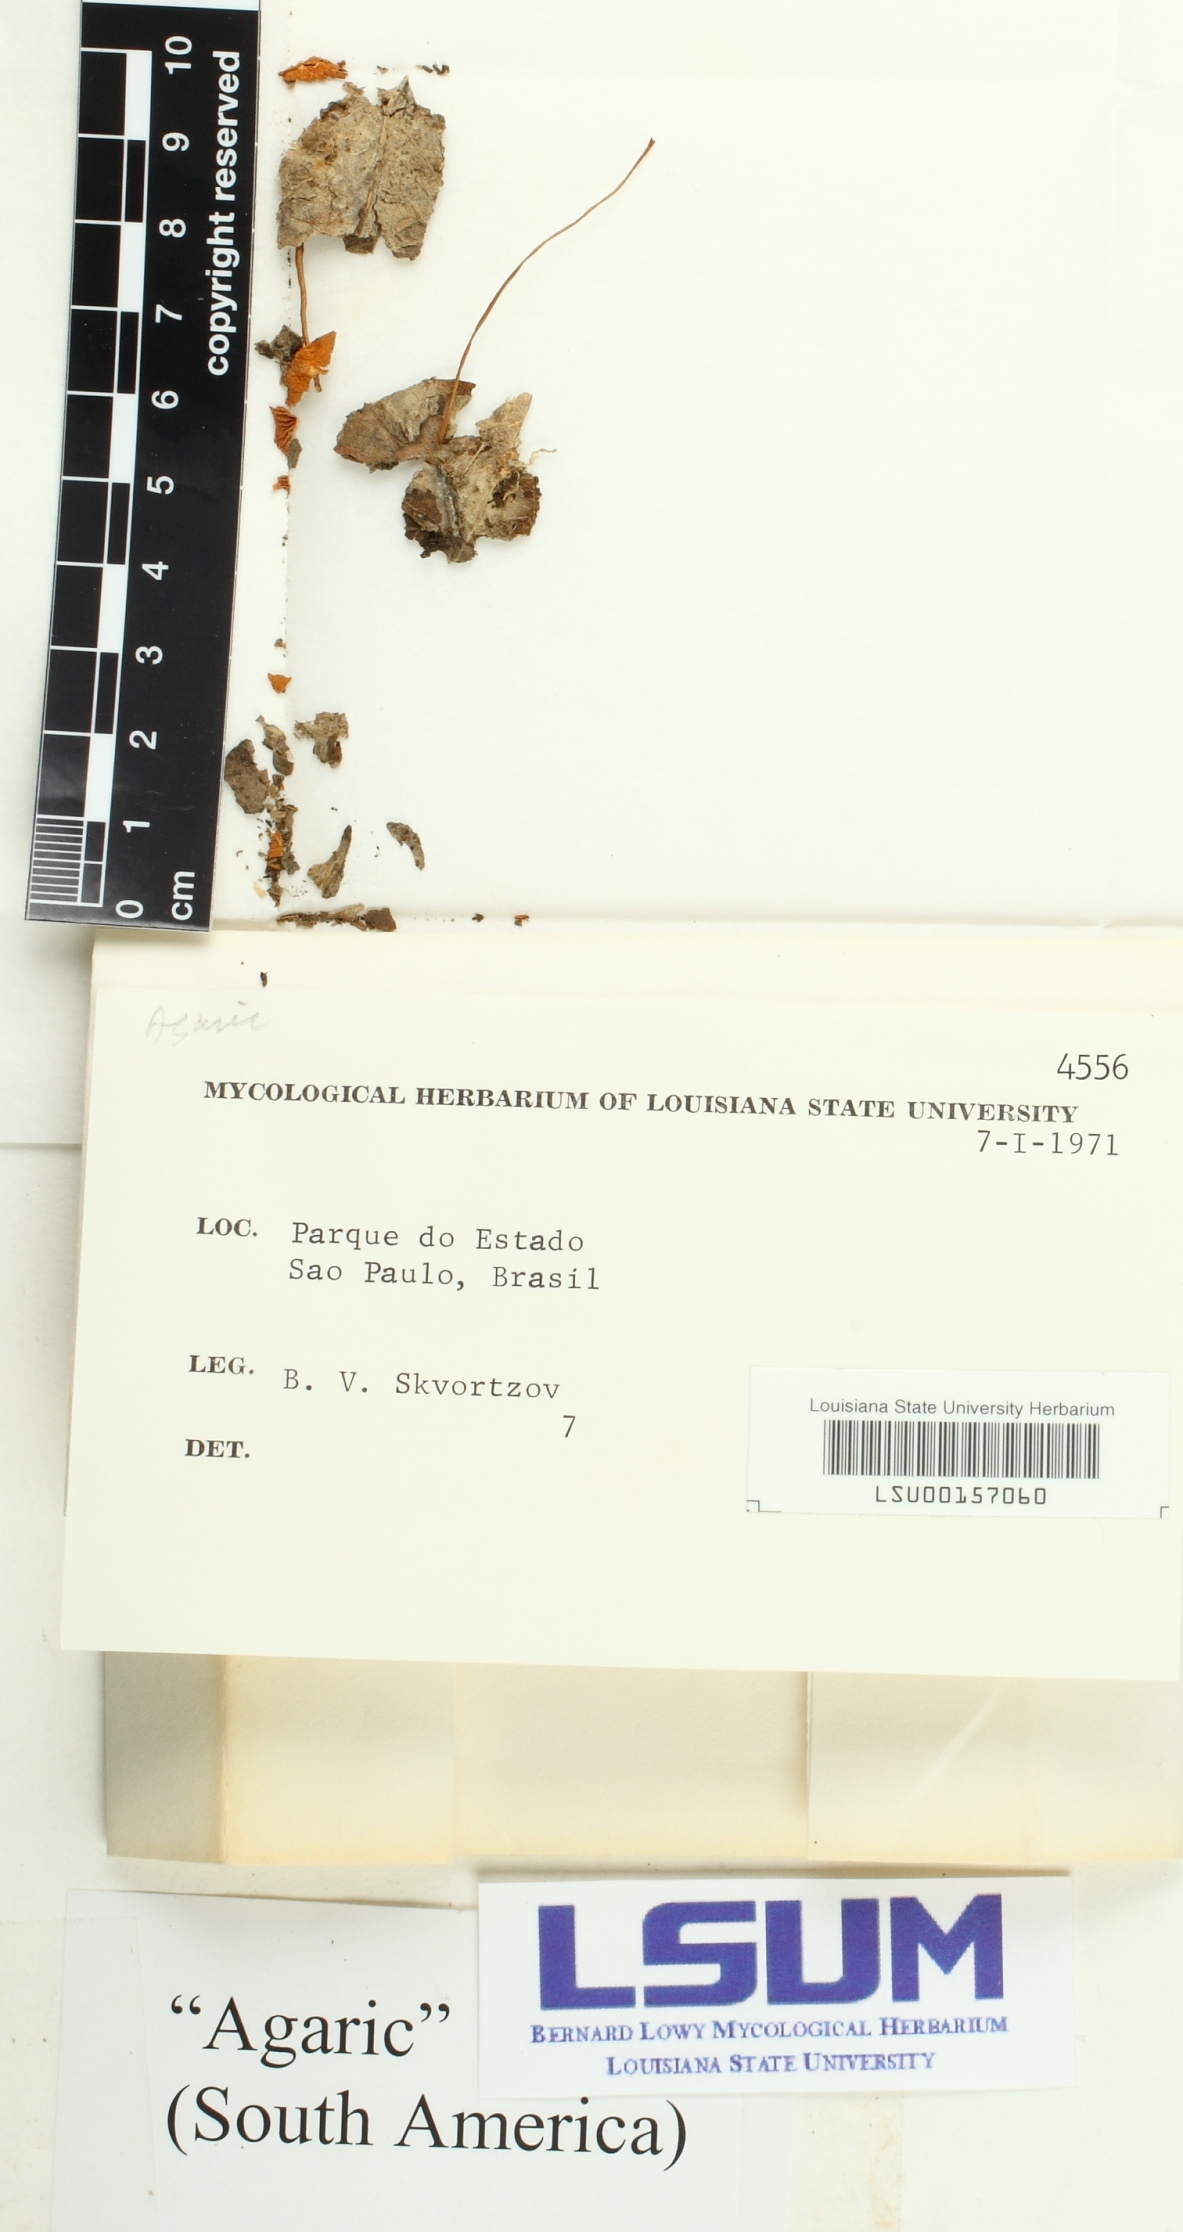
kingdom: Fungi
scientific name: Fungi
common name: Fungi
